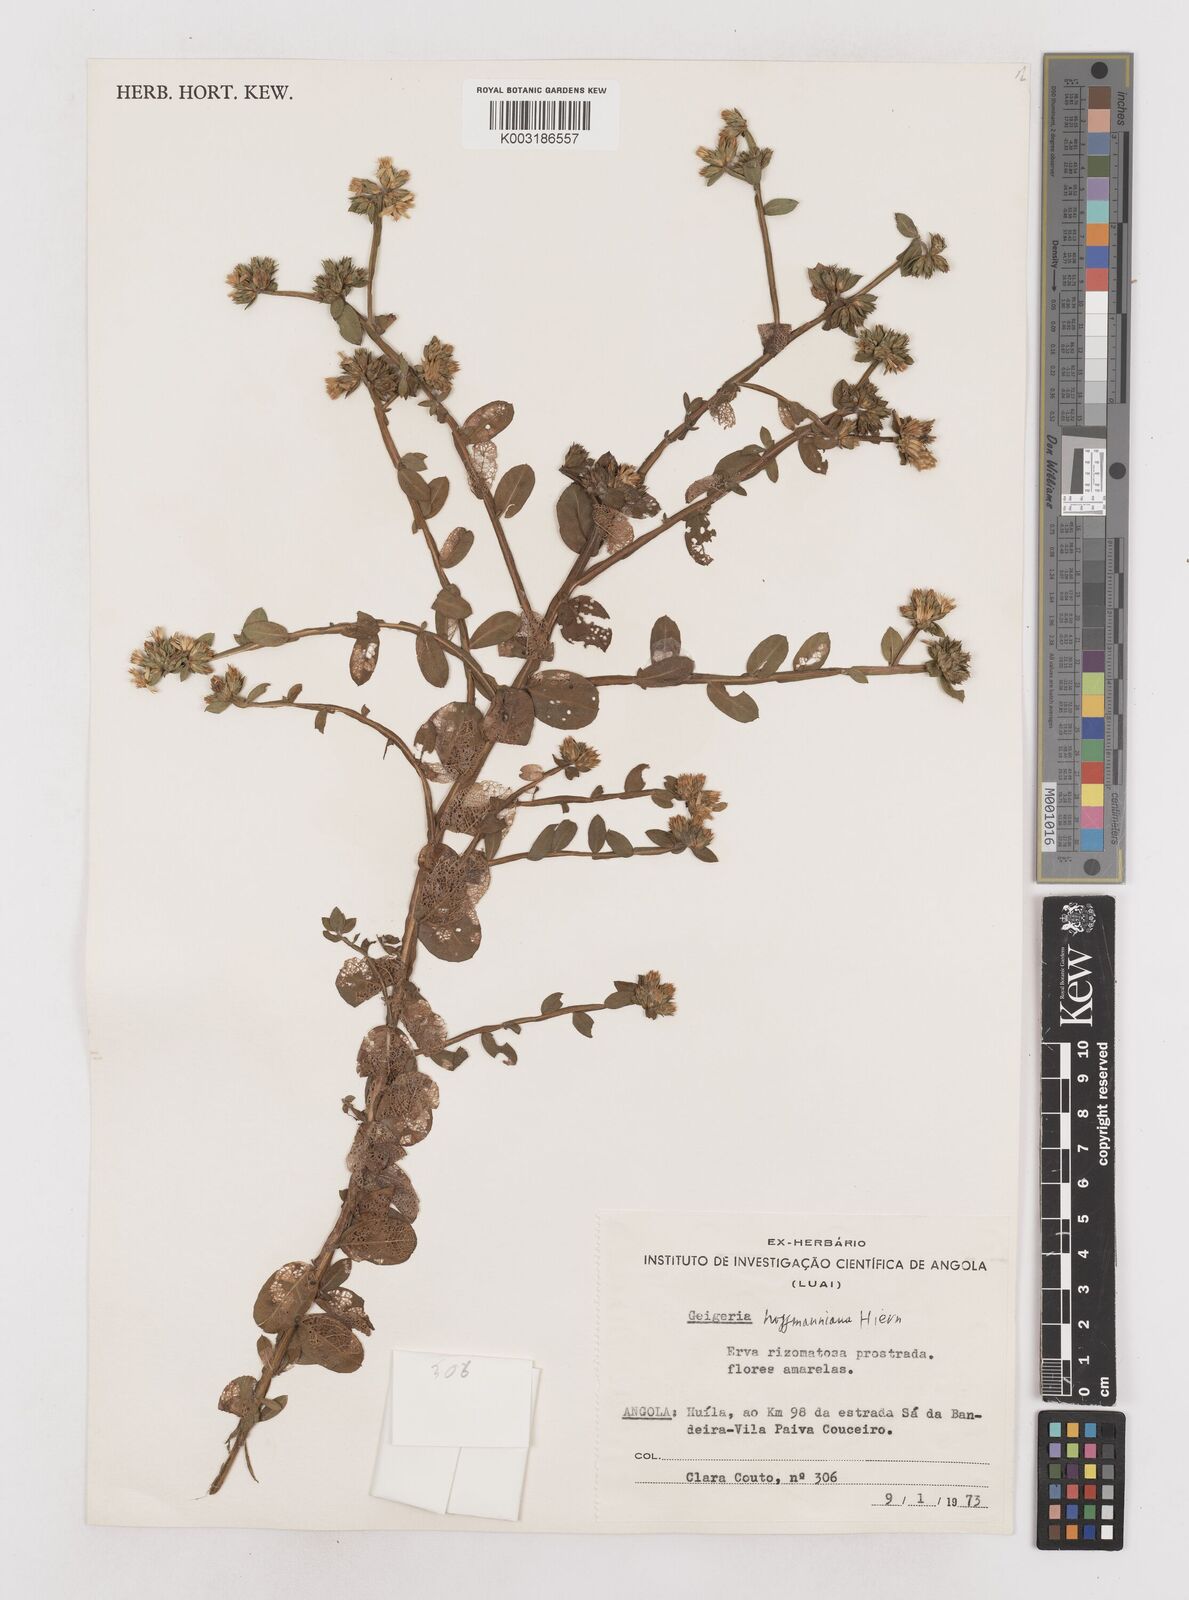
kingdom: Plantae
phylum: Tracheophyta
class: Magnoliopsida
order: Asterales
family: Asteraceae
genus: Geigeria
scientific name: Geigeria hoffmanniana
